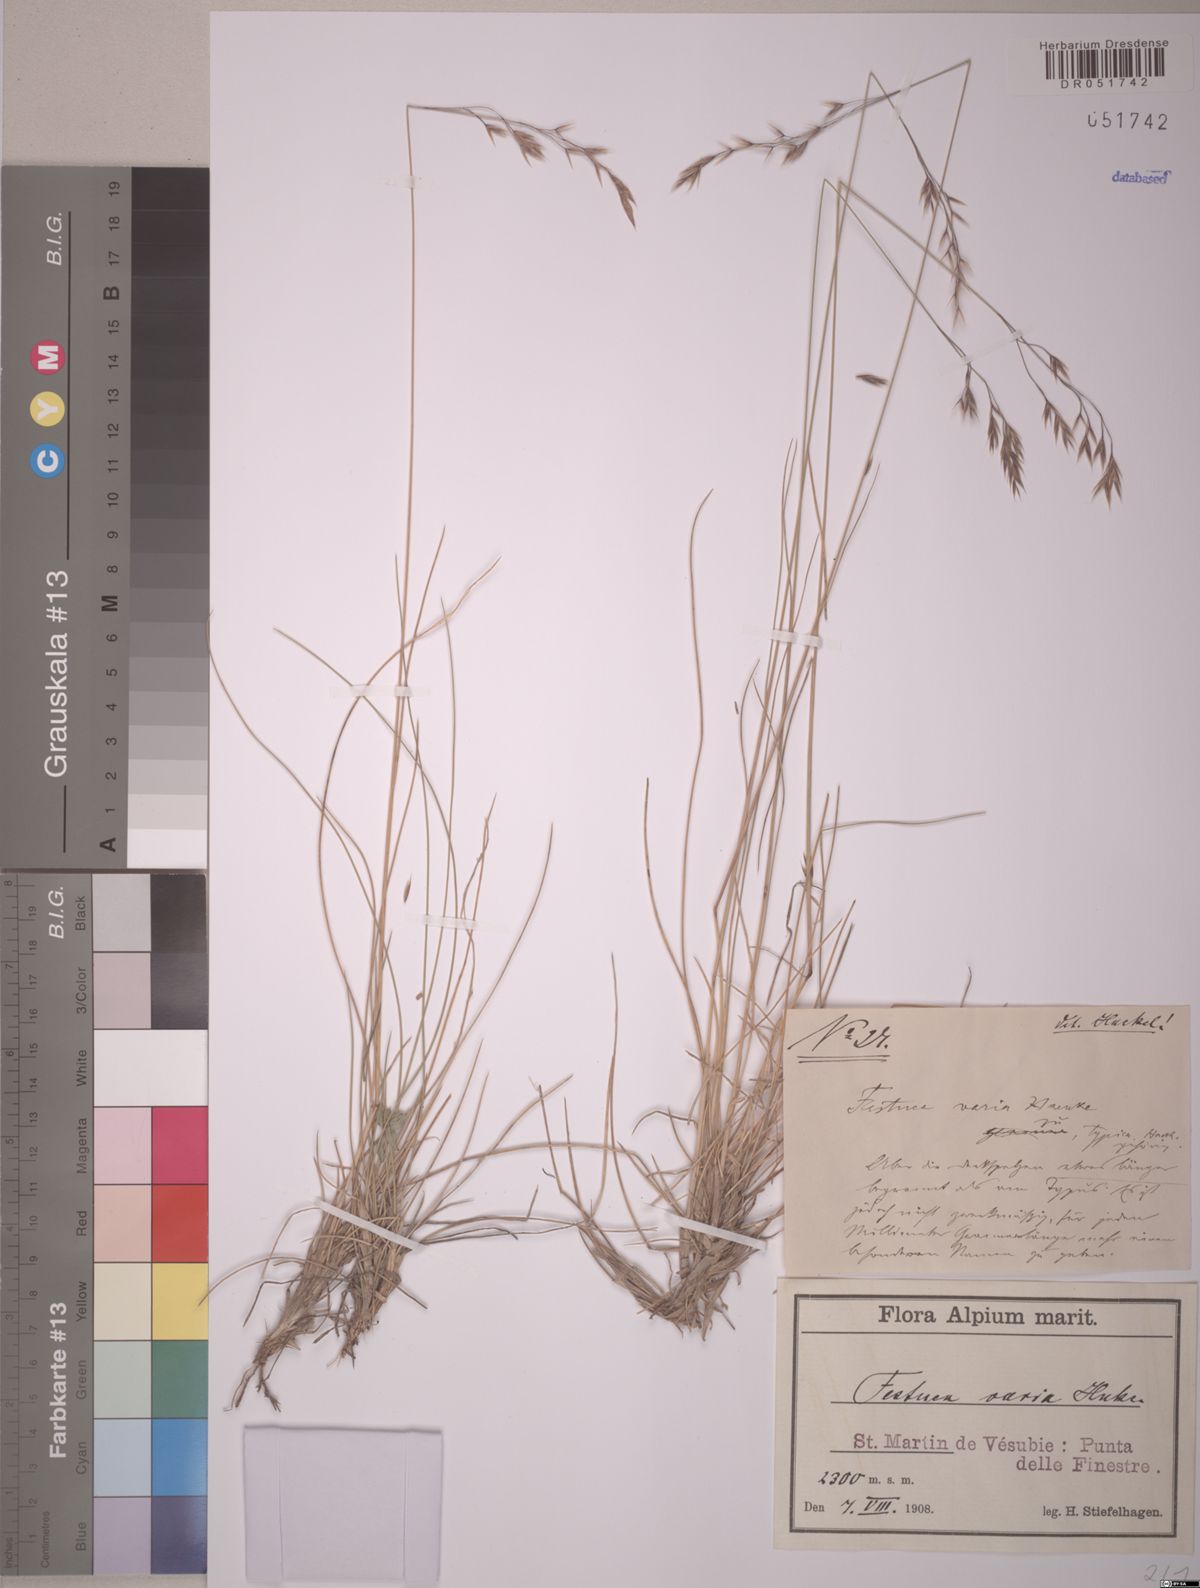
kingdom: Plantae
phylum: Tracheophyta
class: Liliopsida
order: Poales
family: Poaceae
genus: Festuca
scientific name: Festuca varia
